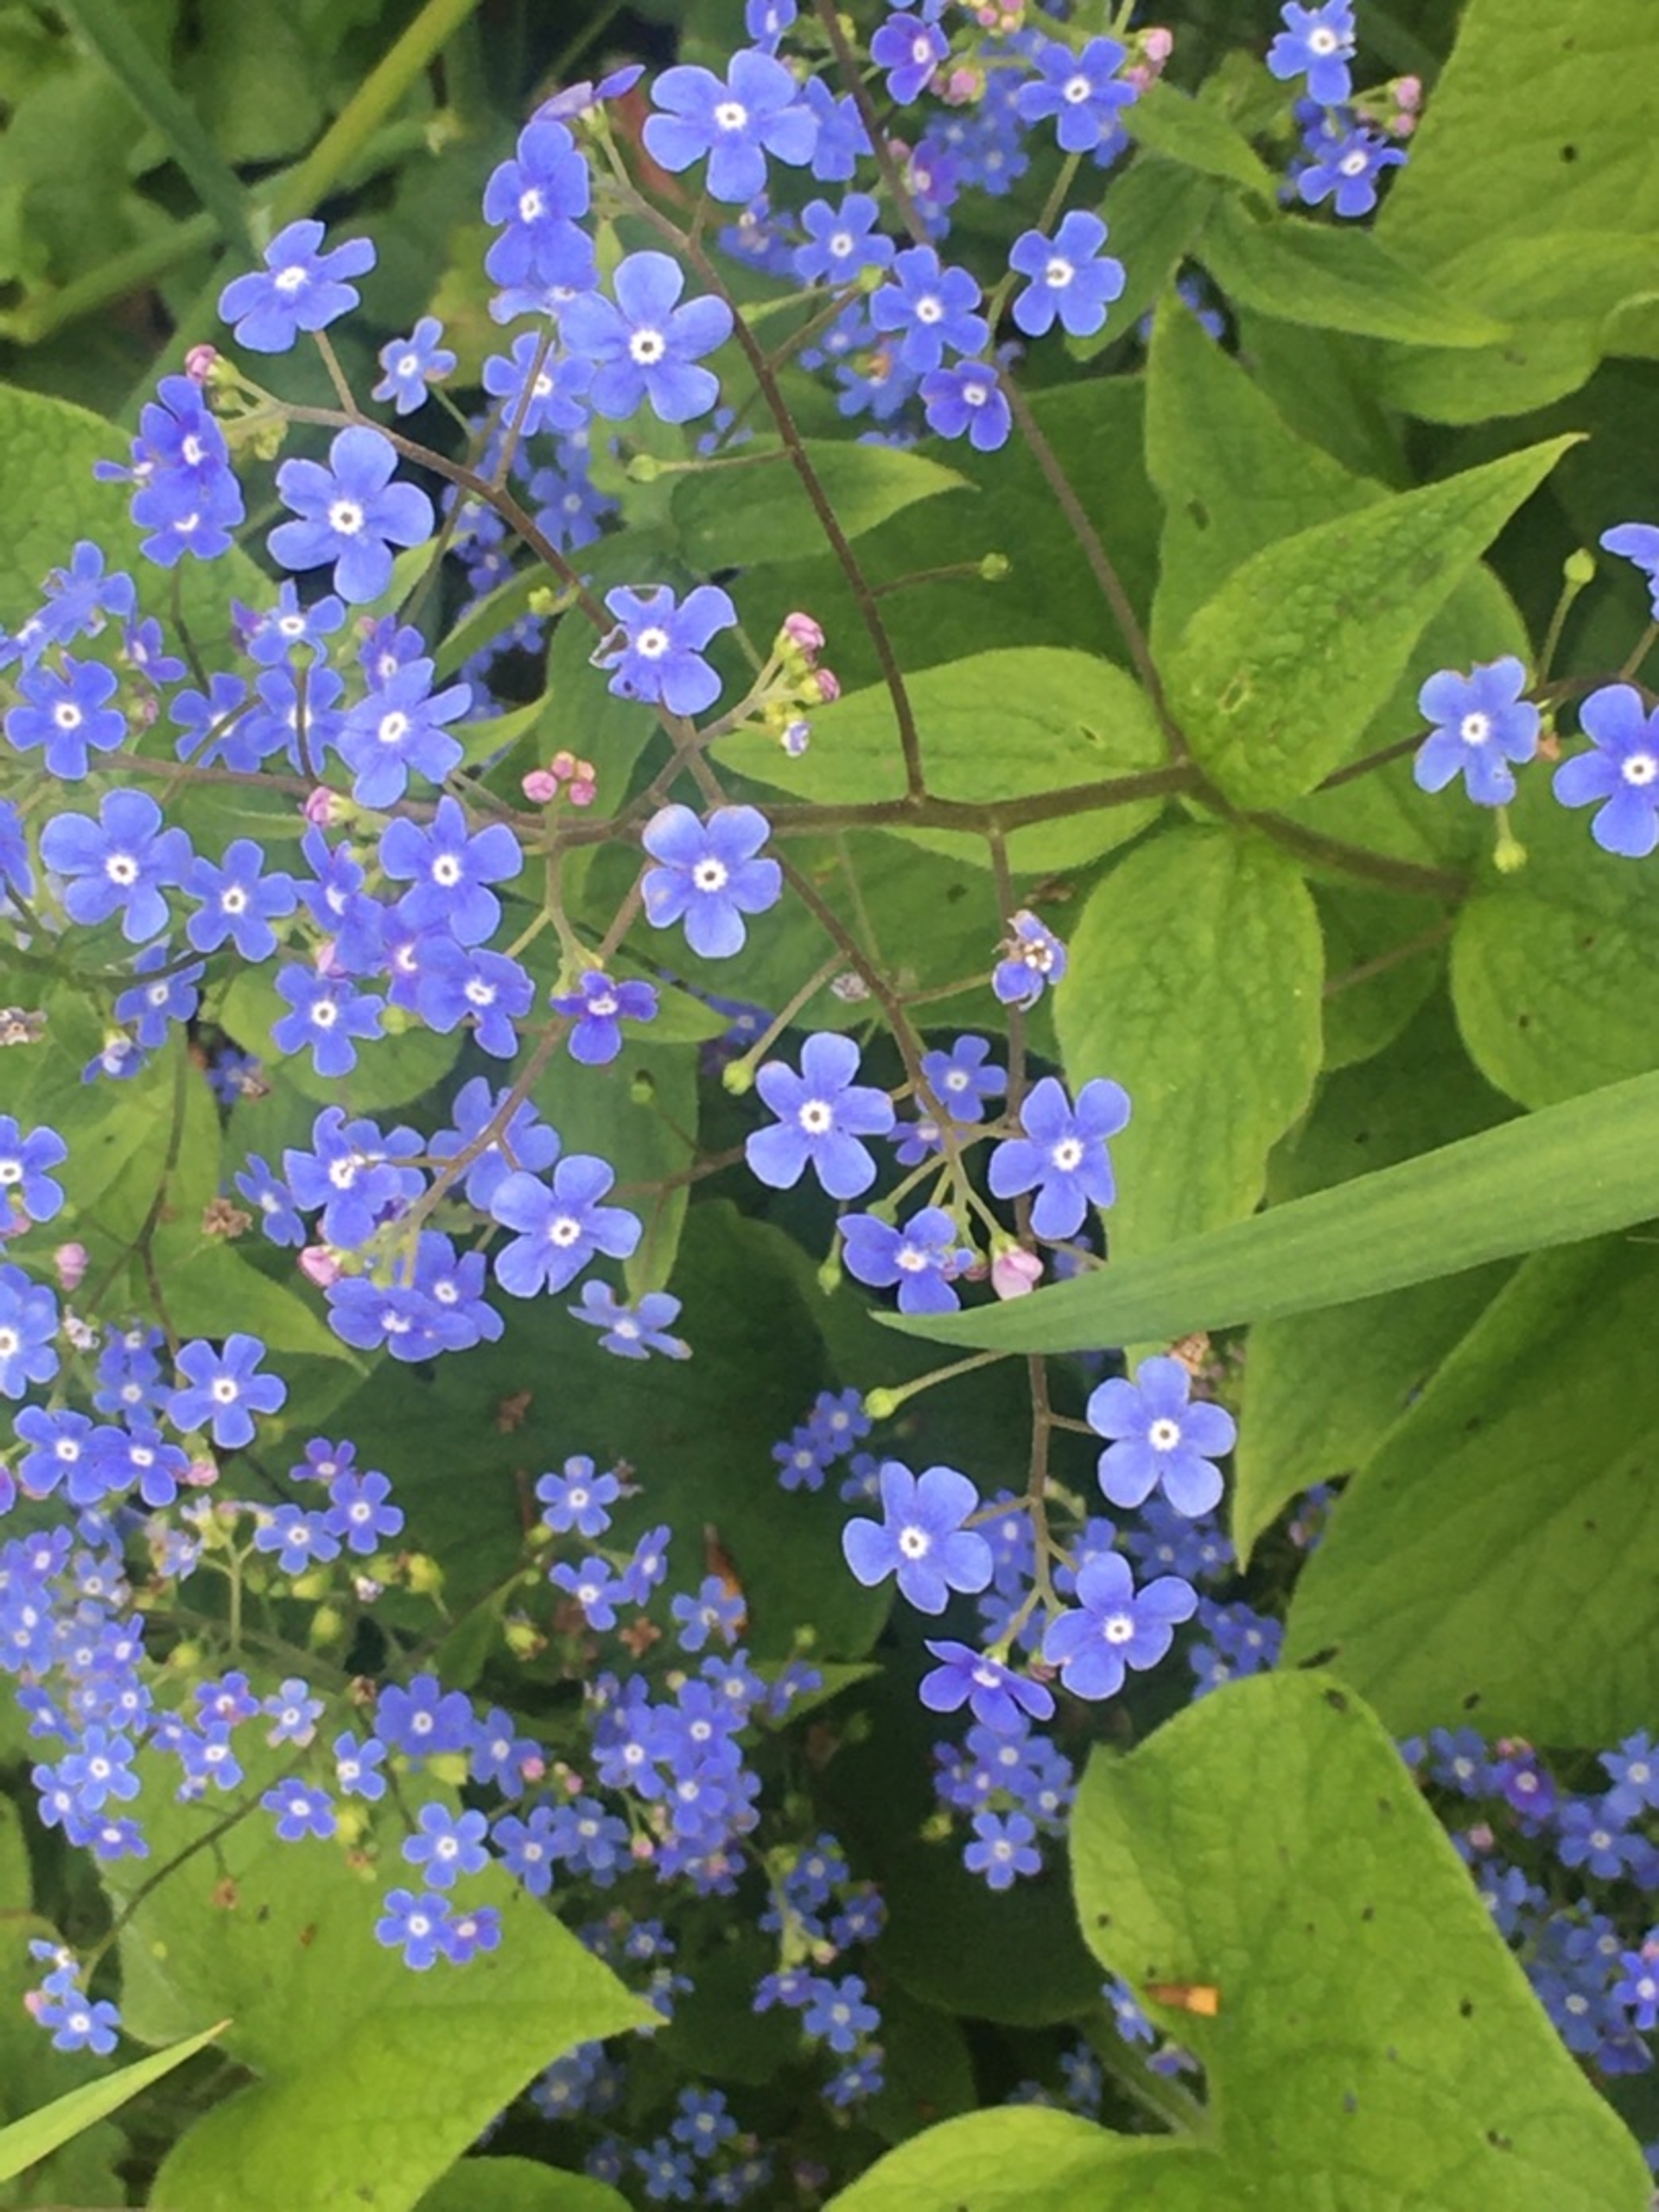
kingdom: Plantae
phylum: Tracheophyta
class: Magnoliopsida
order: Boraginales
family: Boraginaceae
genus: Brunnera
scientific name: Brunnera macrophylla
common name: Kærmindesøster
